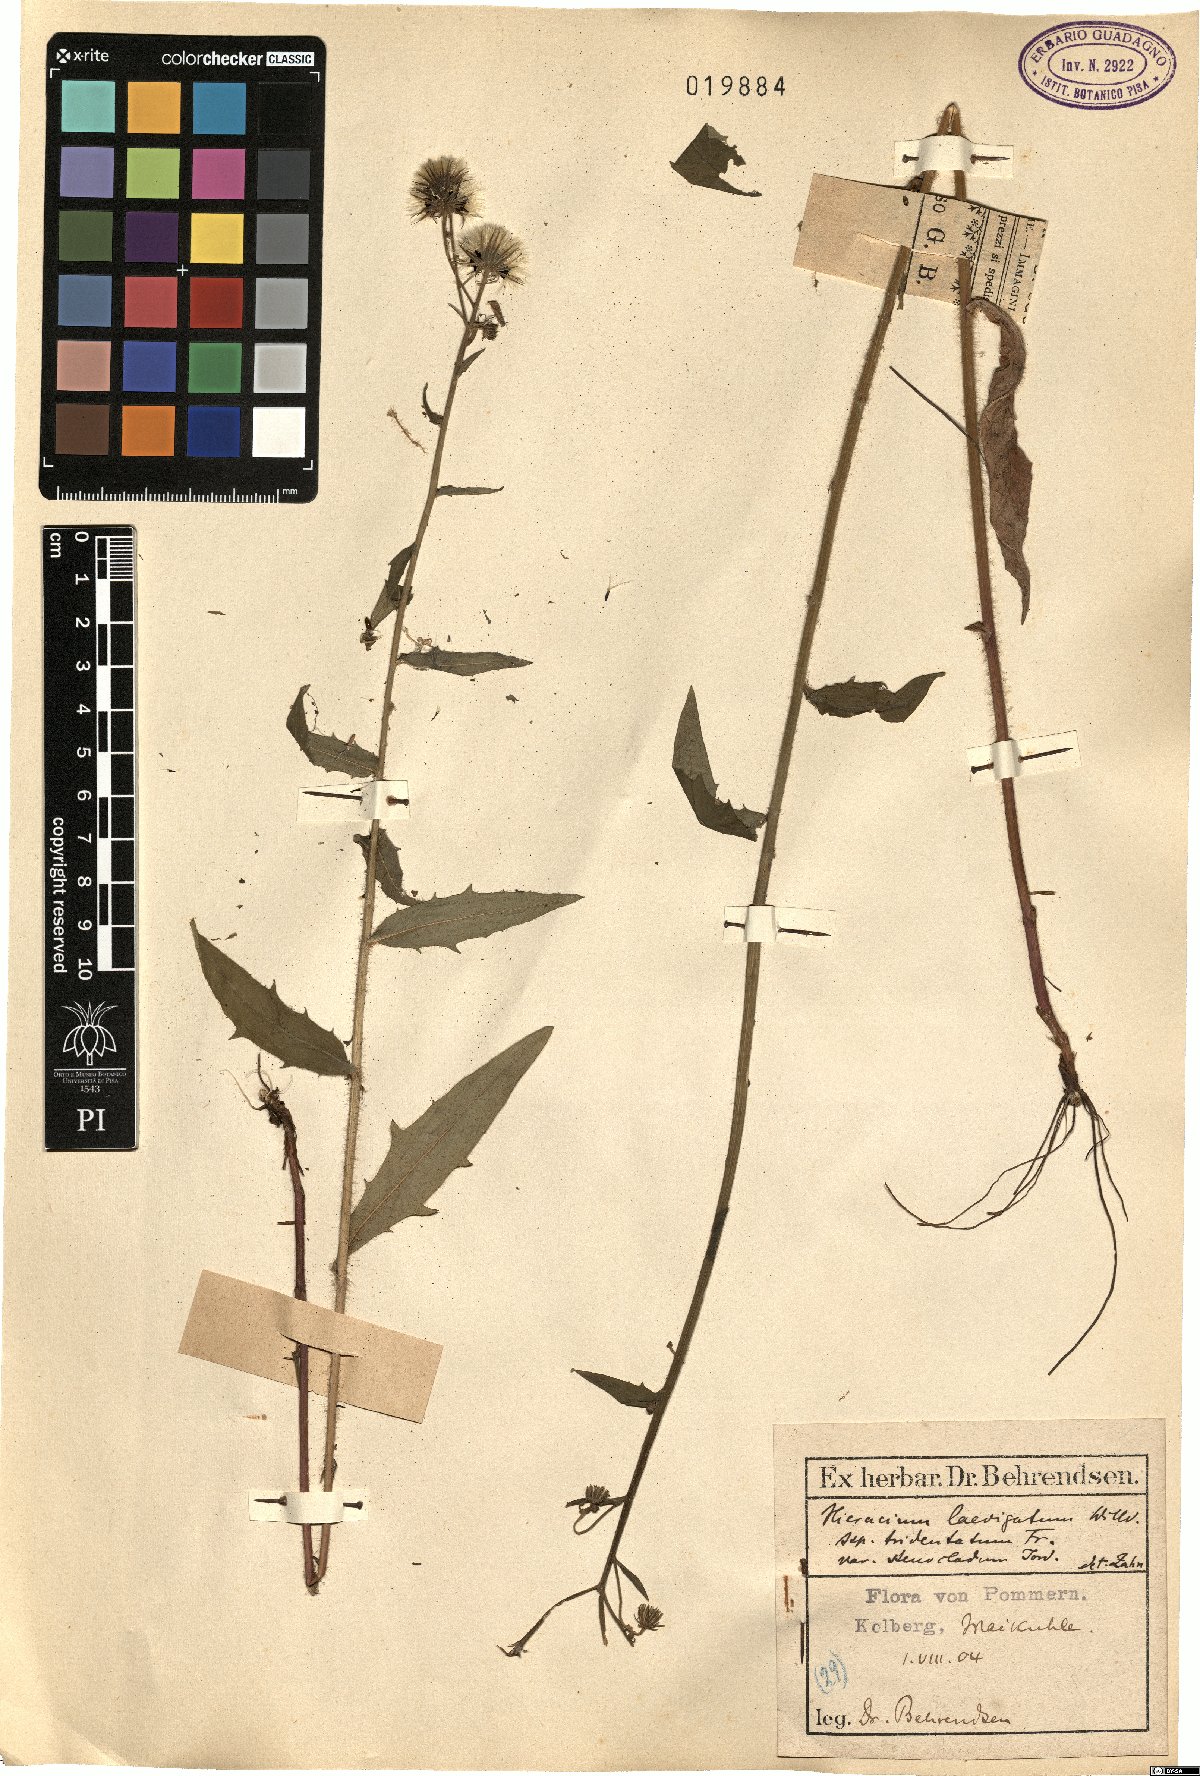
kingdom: Plantae
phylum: Tracheophyta
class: Magnoliopsida
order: Asterales
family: Asteraceae
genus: Hieracium
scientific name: Hieracium tridentatum
